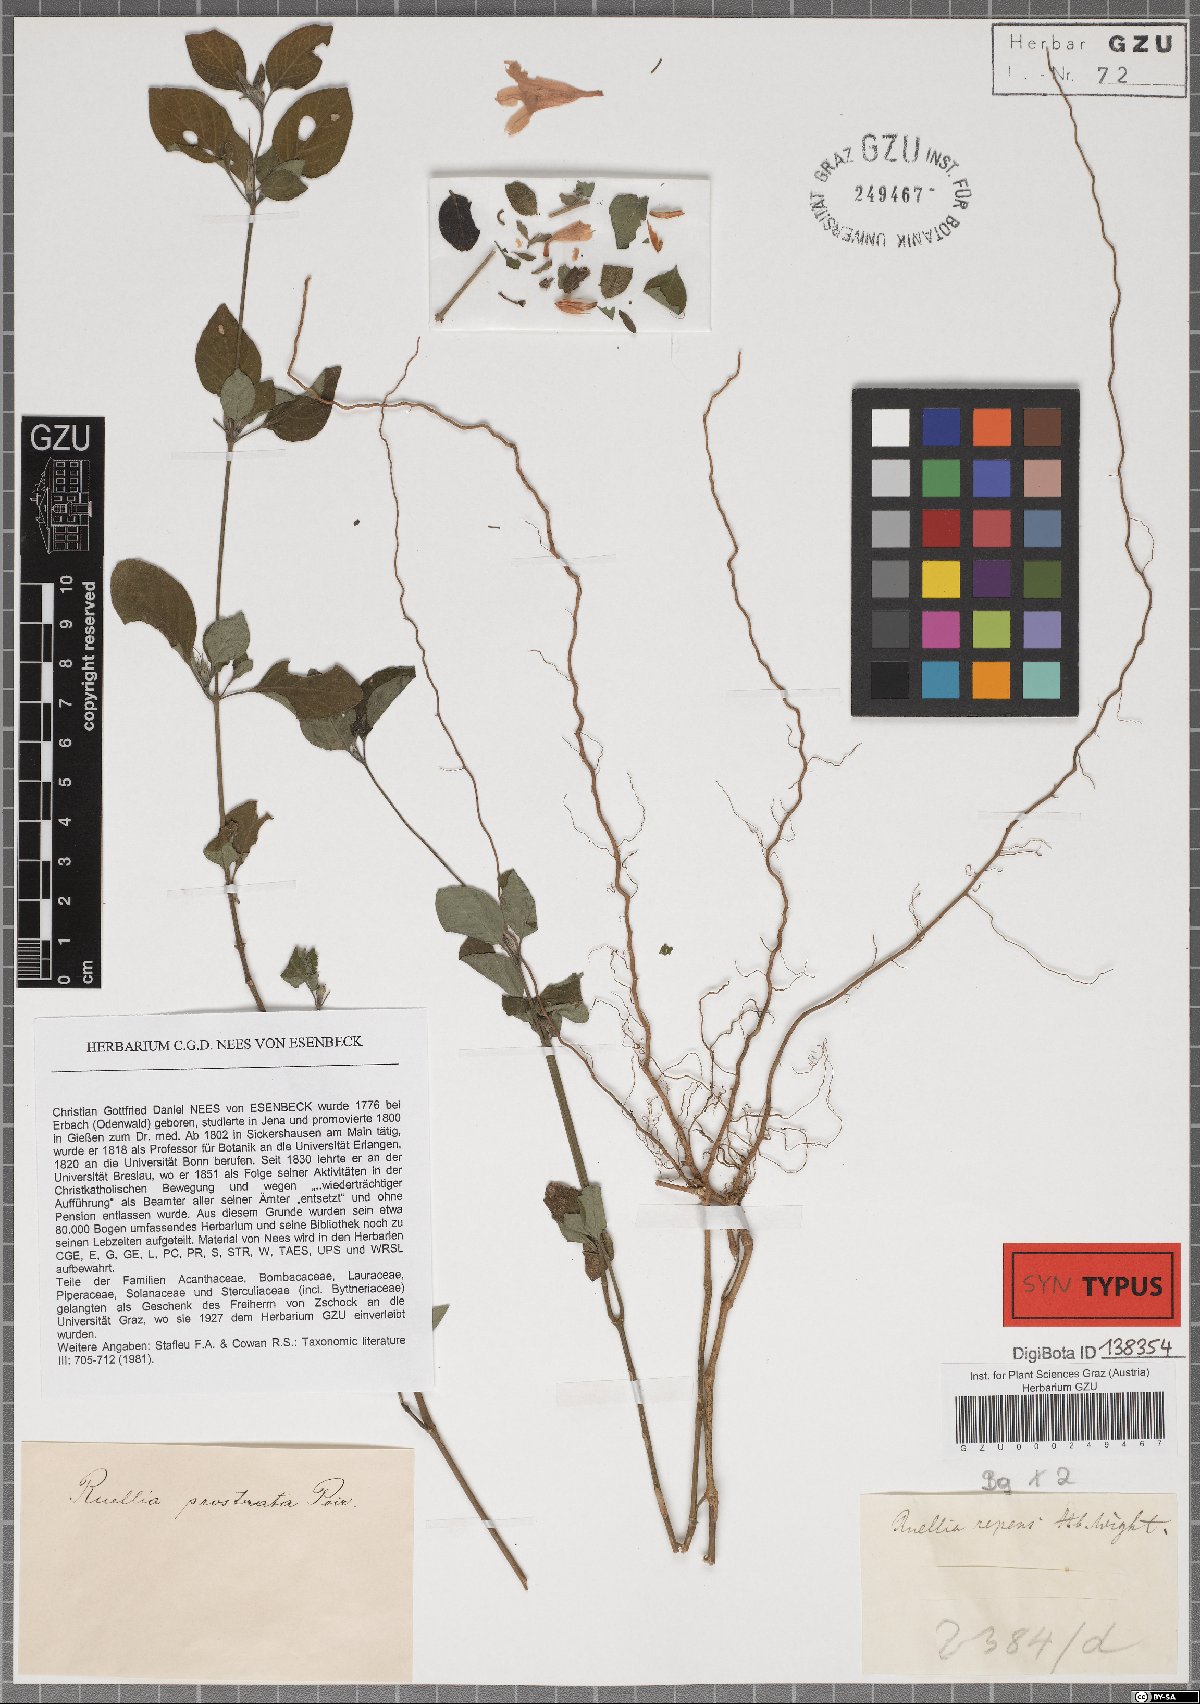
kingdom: Plantae
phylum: Tracheophyta
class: Magnoliopsida
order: Lamiales
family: Acanthaceae
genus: Ruellia
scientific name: Ruellia prostrata
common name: Prostrate wild petunia
